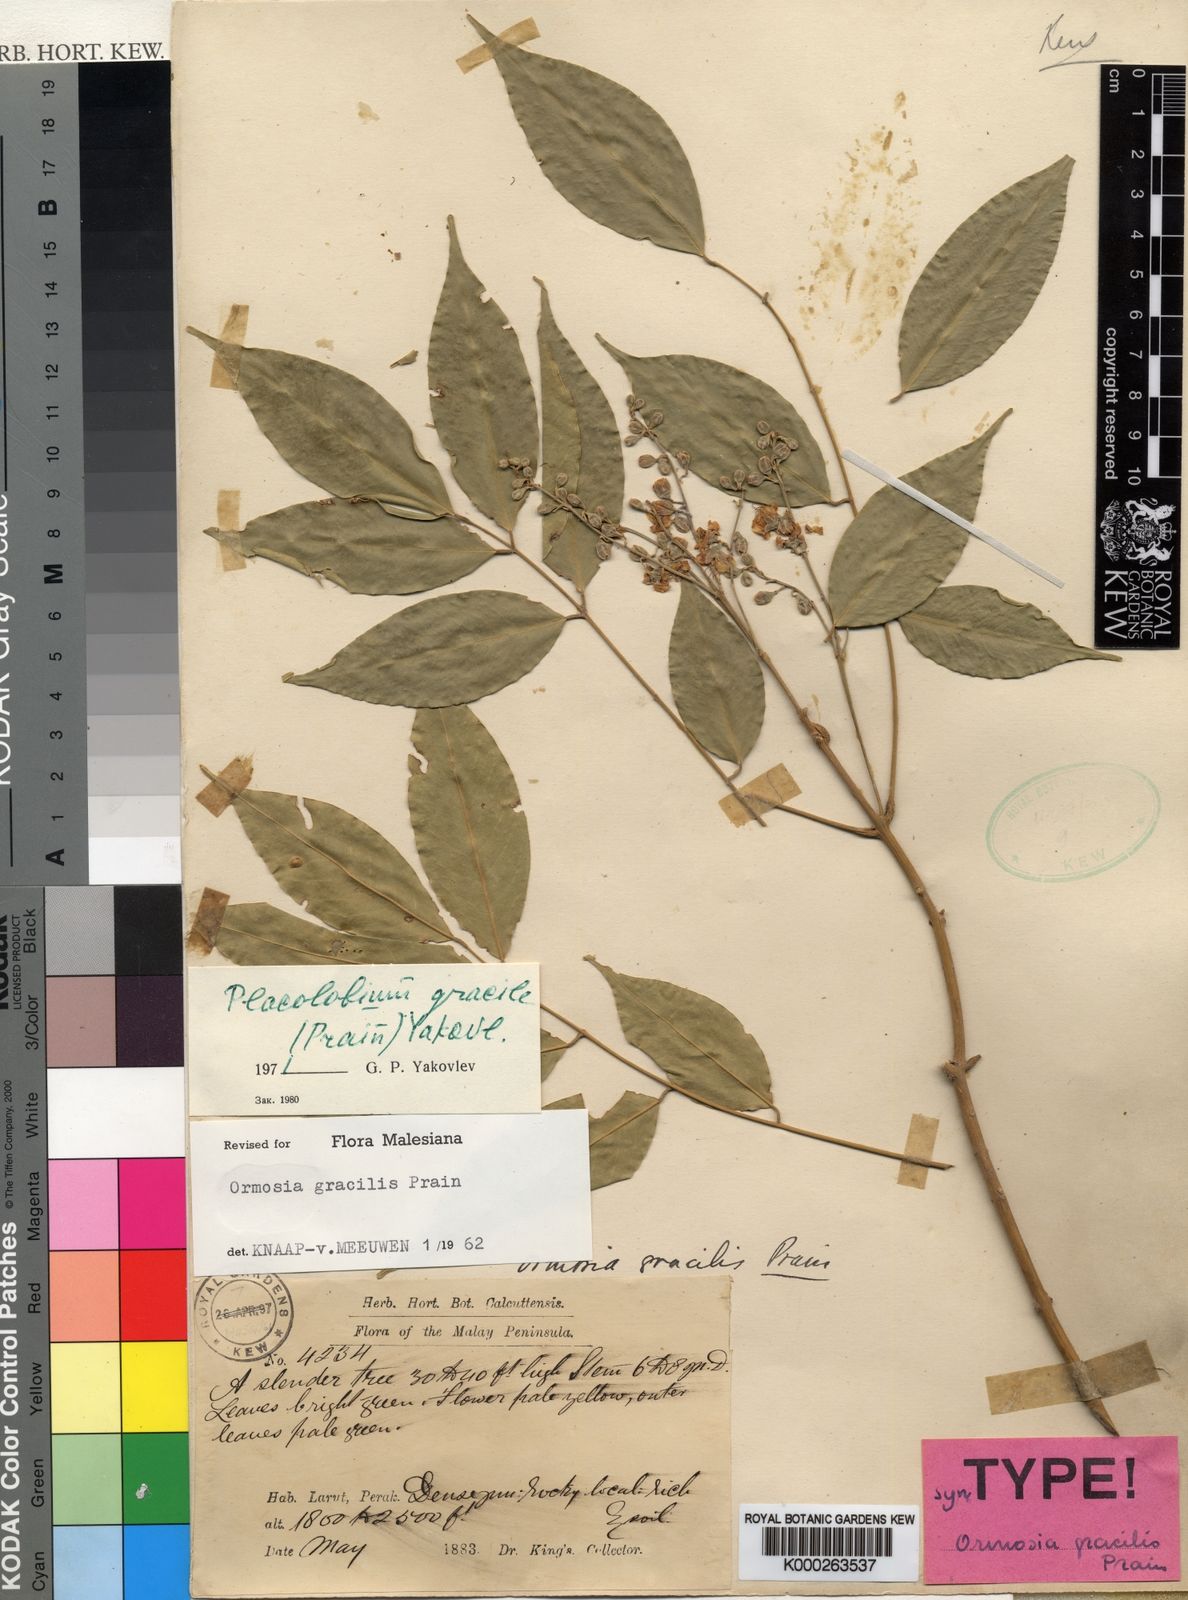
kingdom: Plantae
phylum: Tracheophyta
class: Magnoliopsida
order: Fabales
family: Fabaceae
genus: Ormosia
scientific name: Ormosia gracilis
